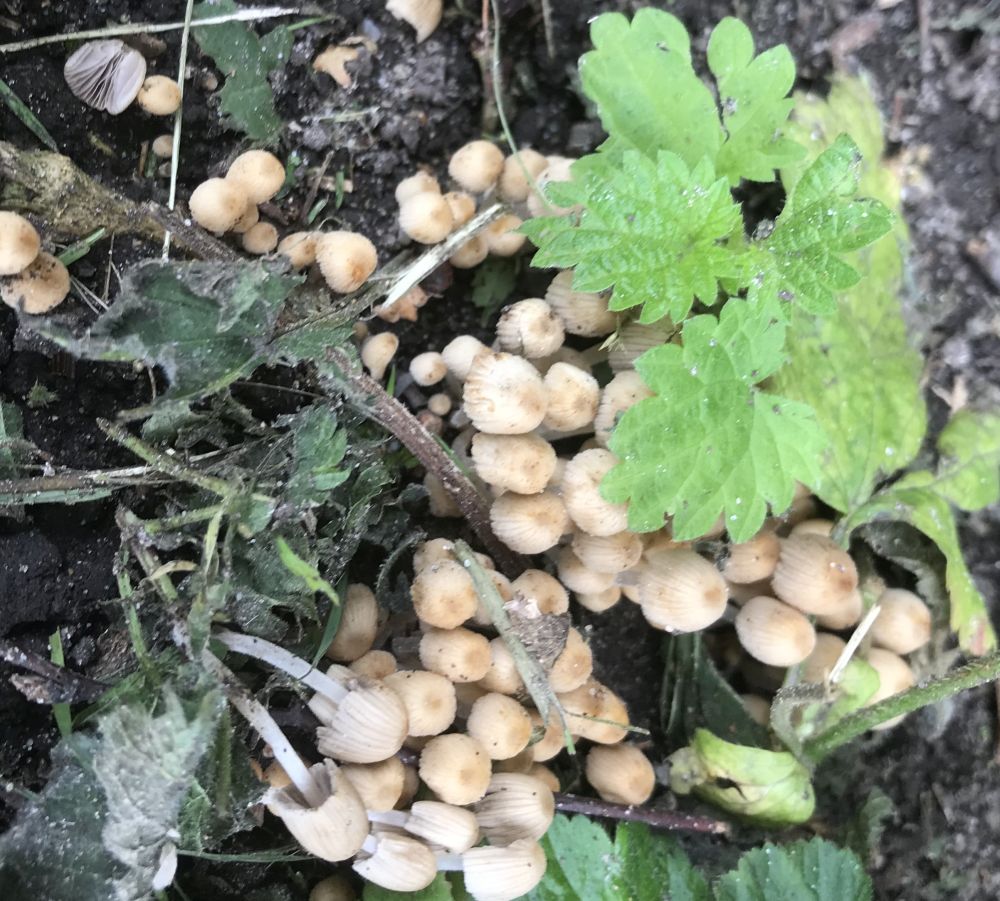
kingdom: Fungi
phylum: Basidiomycota
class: Agaricomycetes
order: Agaricales
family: Psathyrellaceae
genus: Coprinellus
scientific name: Coprinellus disseminatus
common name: bredsået blækhat
